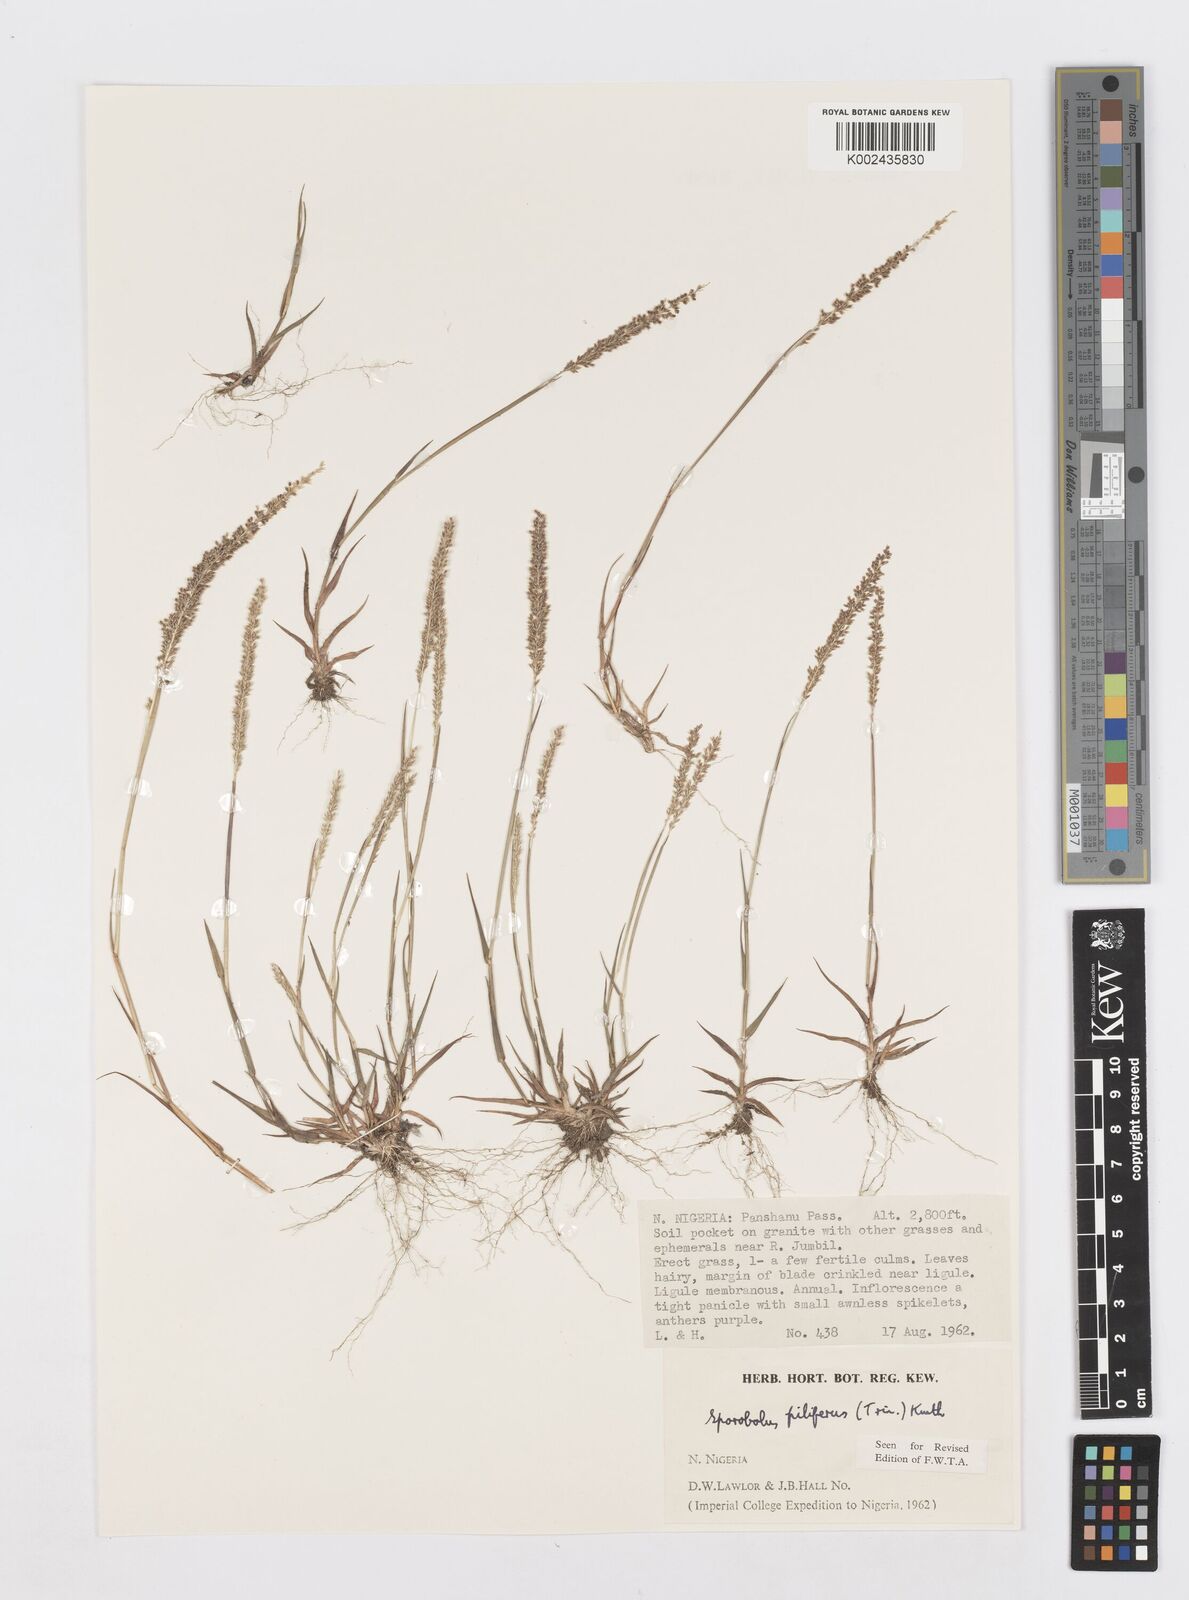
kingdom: Plantae
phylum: Tracheophyta
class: Liliopsida
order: Poales
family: Poaceae
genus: Sporobolus
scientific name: Sporobolus pilifer
